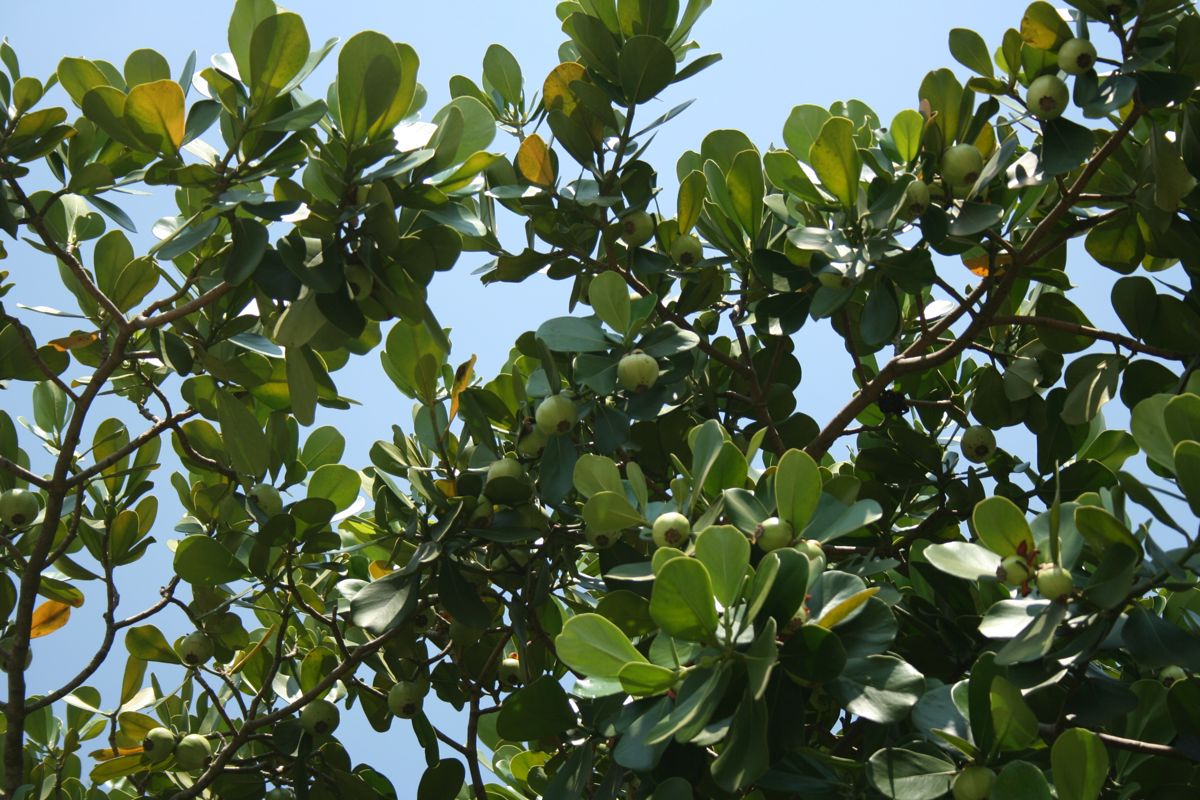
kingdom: Plantae
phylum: Tracheophyta
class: Magnoliopsida
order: Malpighiales
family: Clusiaceae
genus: Clusia
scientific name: Clusia rosea
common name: Scotch attorney
